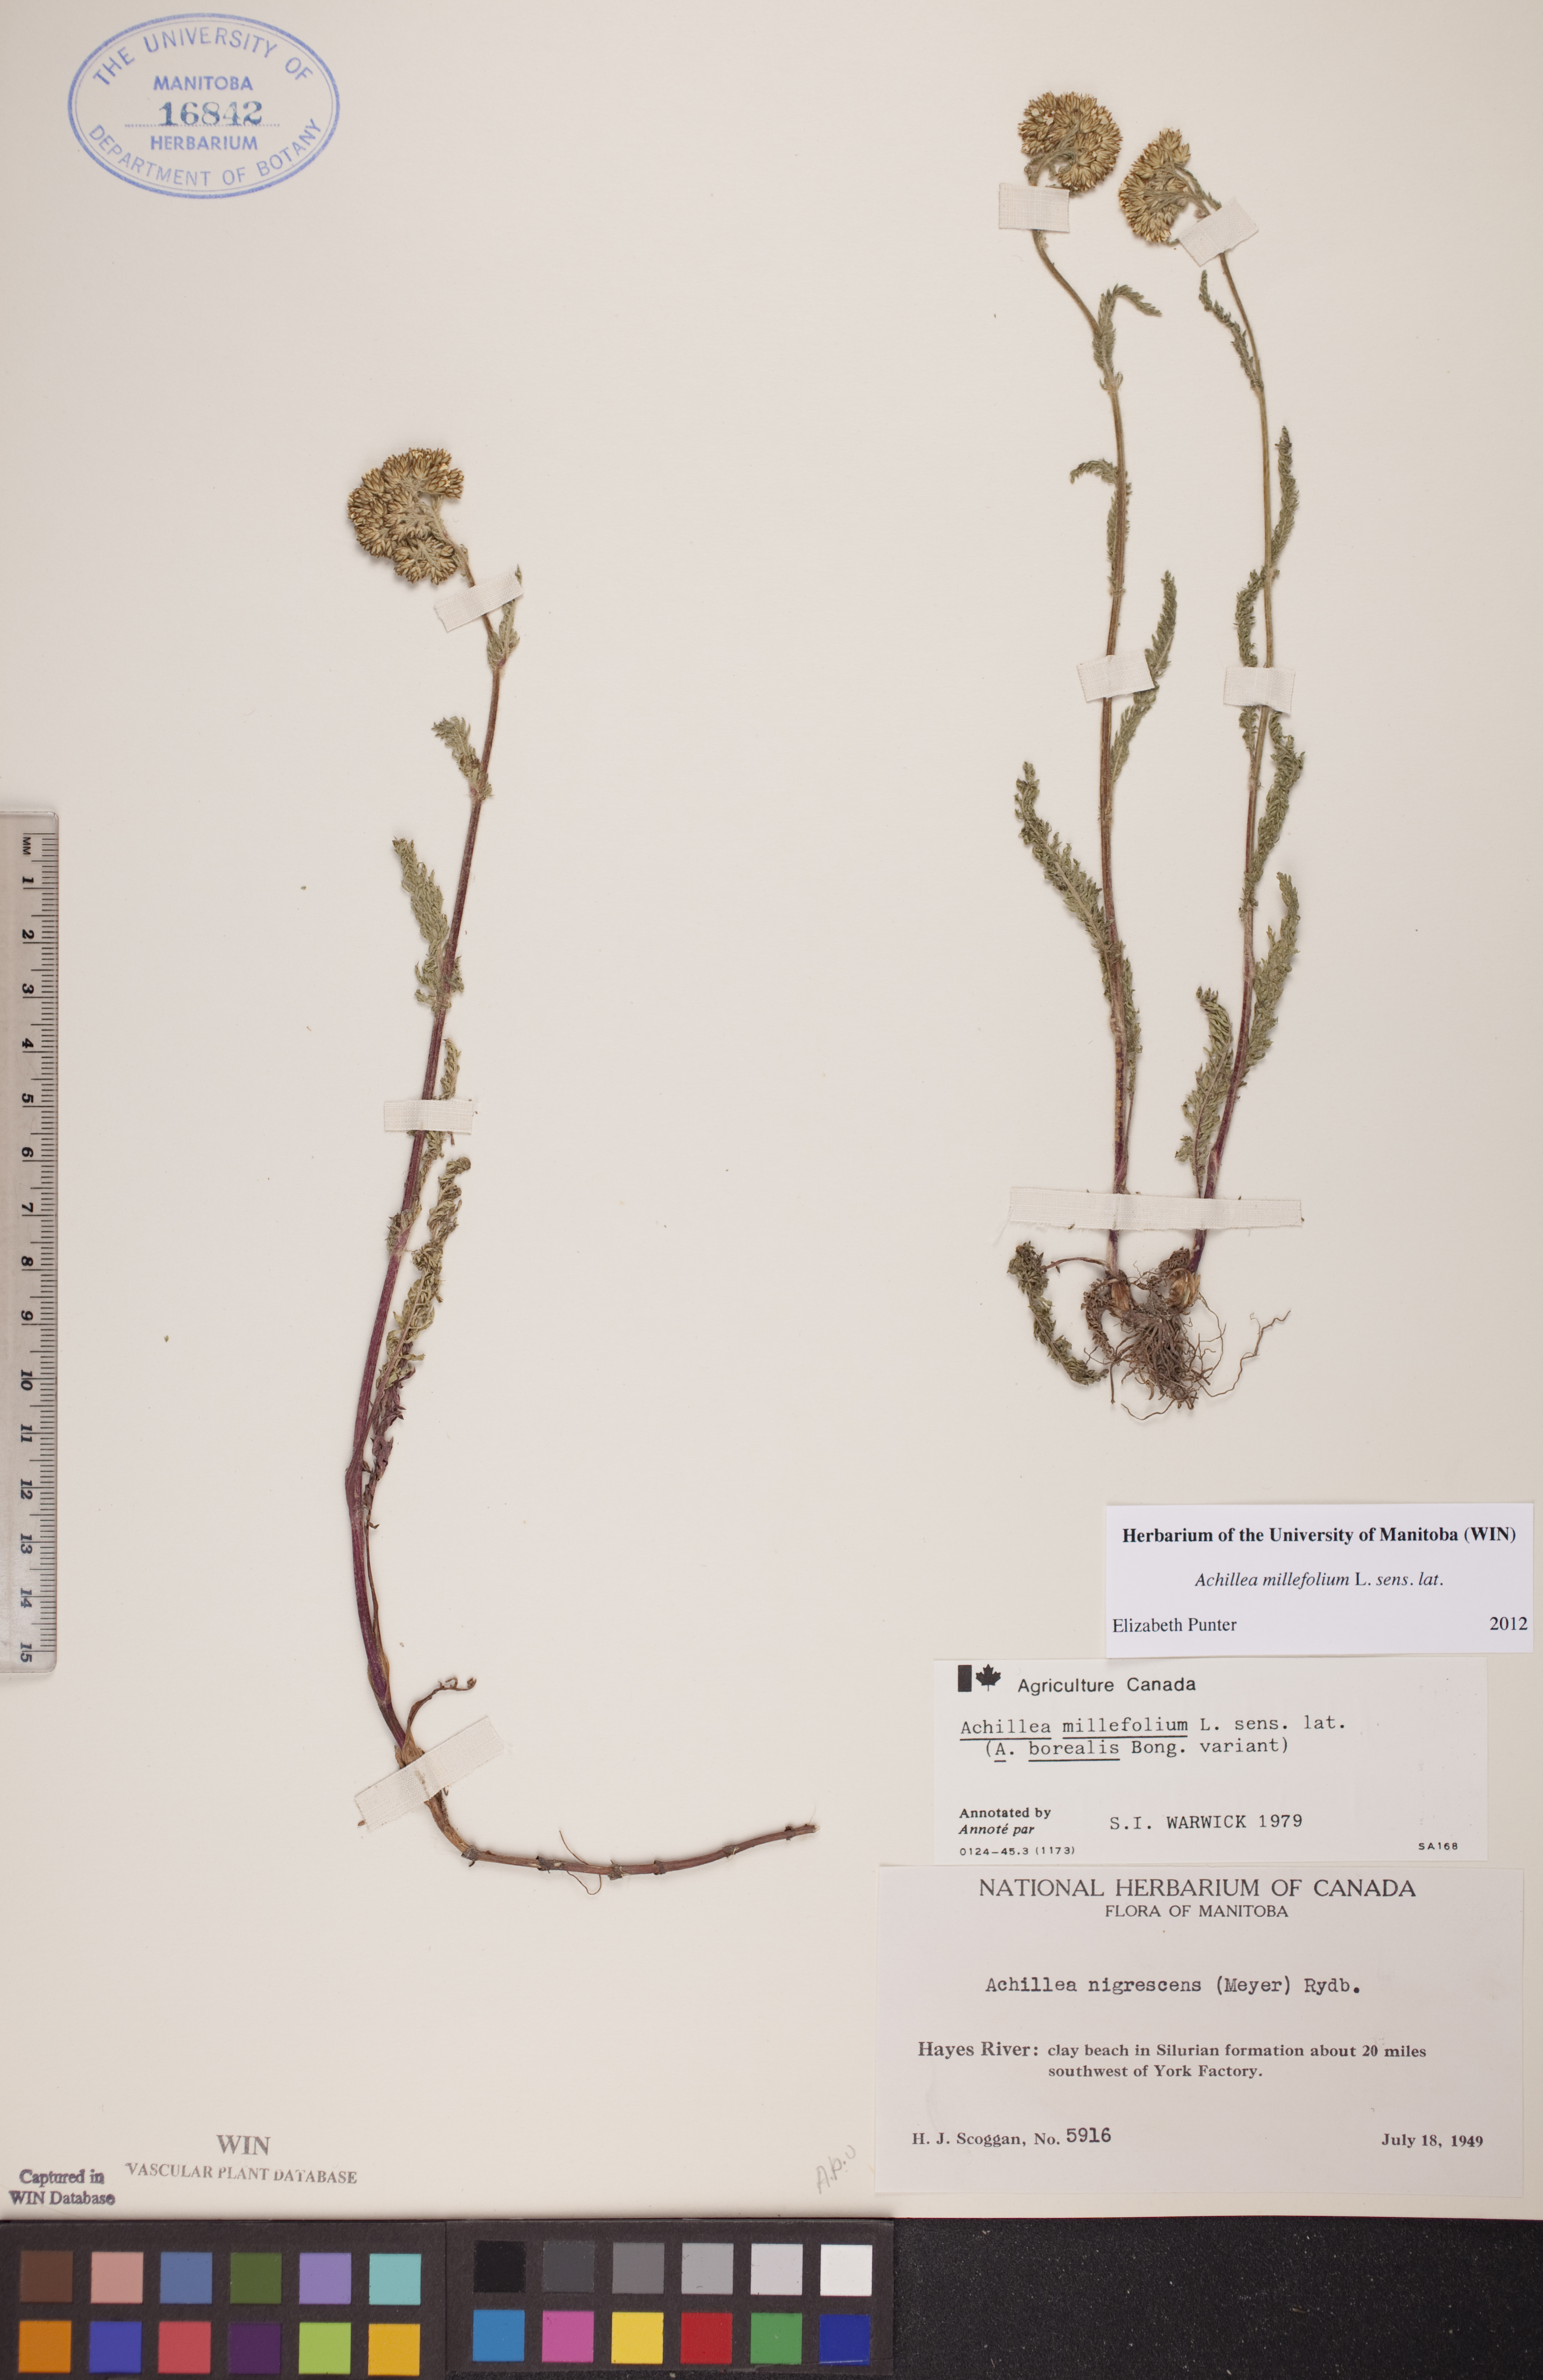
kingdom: Plantae
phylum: Tracheophyta
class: Magnoliopsida
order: Asterales
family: Asteraceae
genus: Achillea
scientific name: Achillea millefolium
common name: Yarrow
